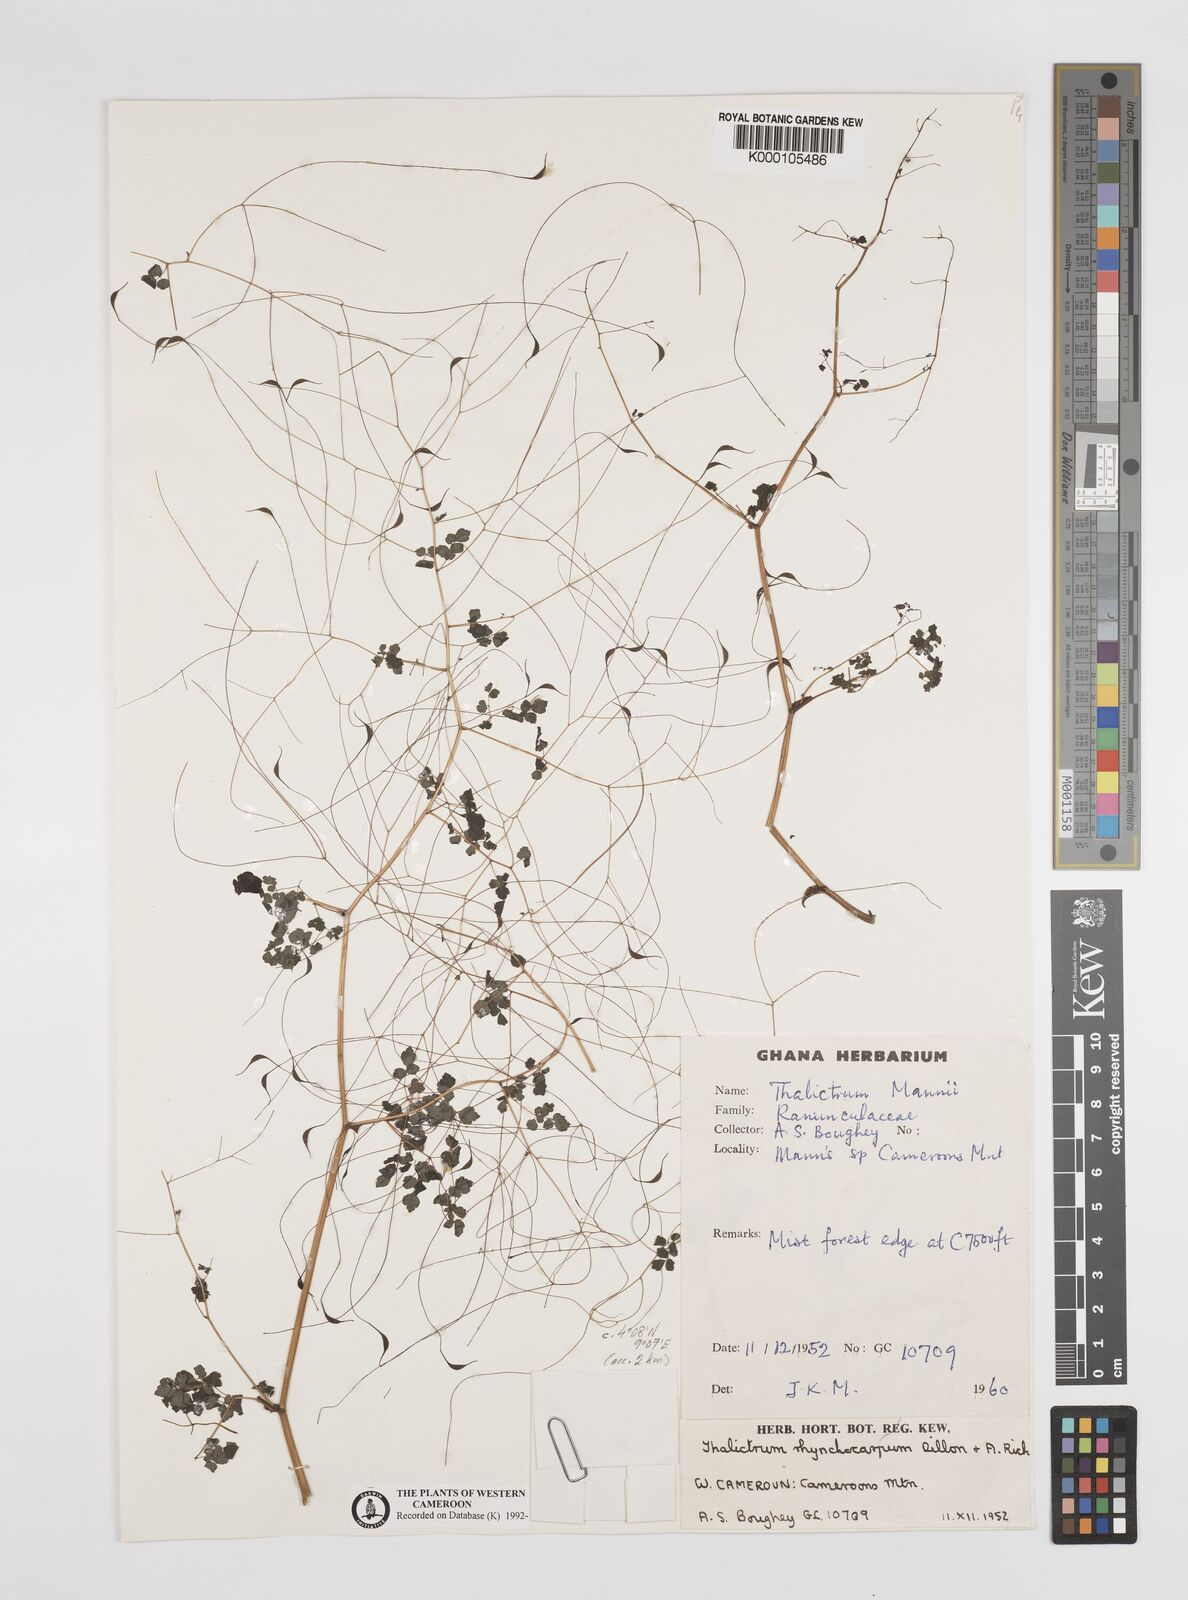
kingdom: Plantae
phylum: Tracheophyta
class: Magnoliopsida
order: Ranunculales
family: Ranunculaceae
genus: Thalictrum
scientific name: Thalictrum
